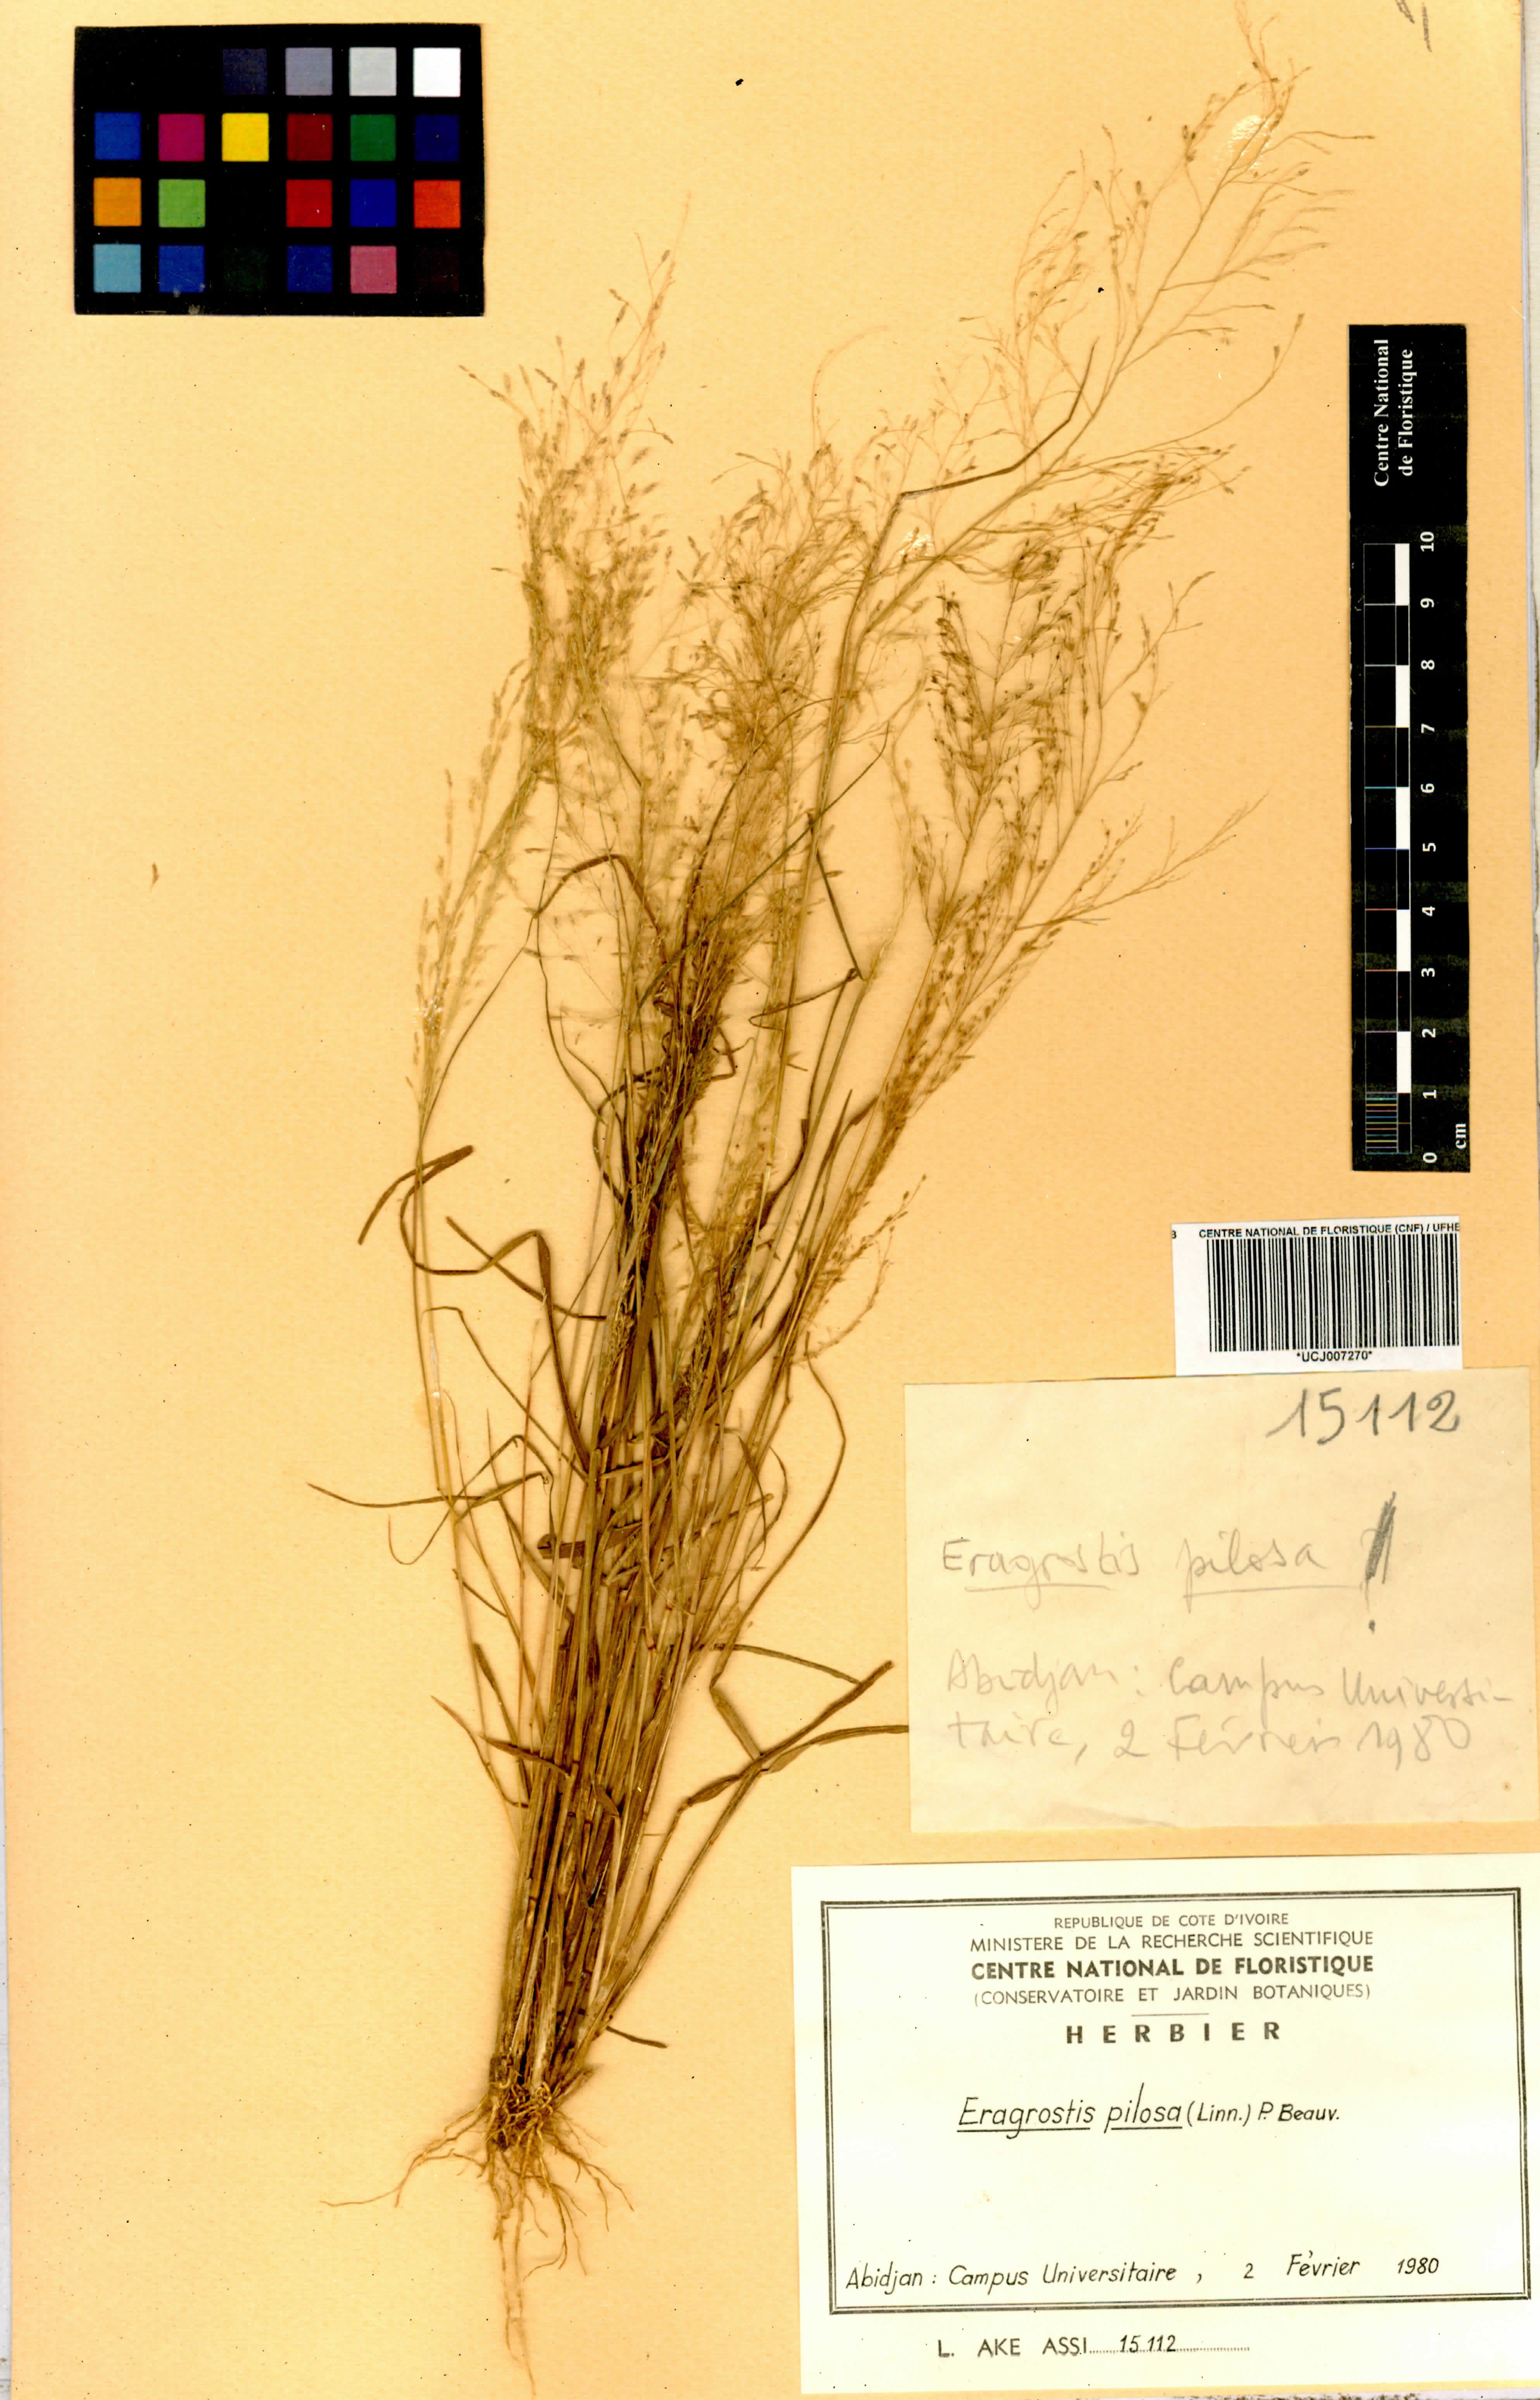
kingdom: Plantae
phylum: Tracheophyta
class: Liliopsida
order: Poales
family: Poaceae
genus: Eragrostis
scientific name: Eragrostis pilosa
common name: Indian lovegrass
